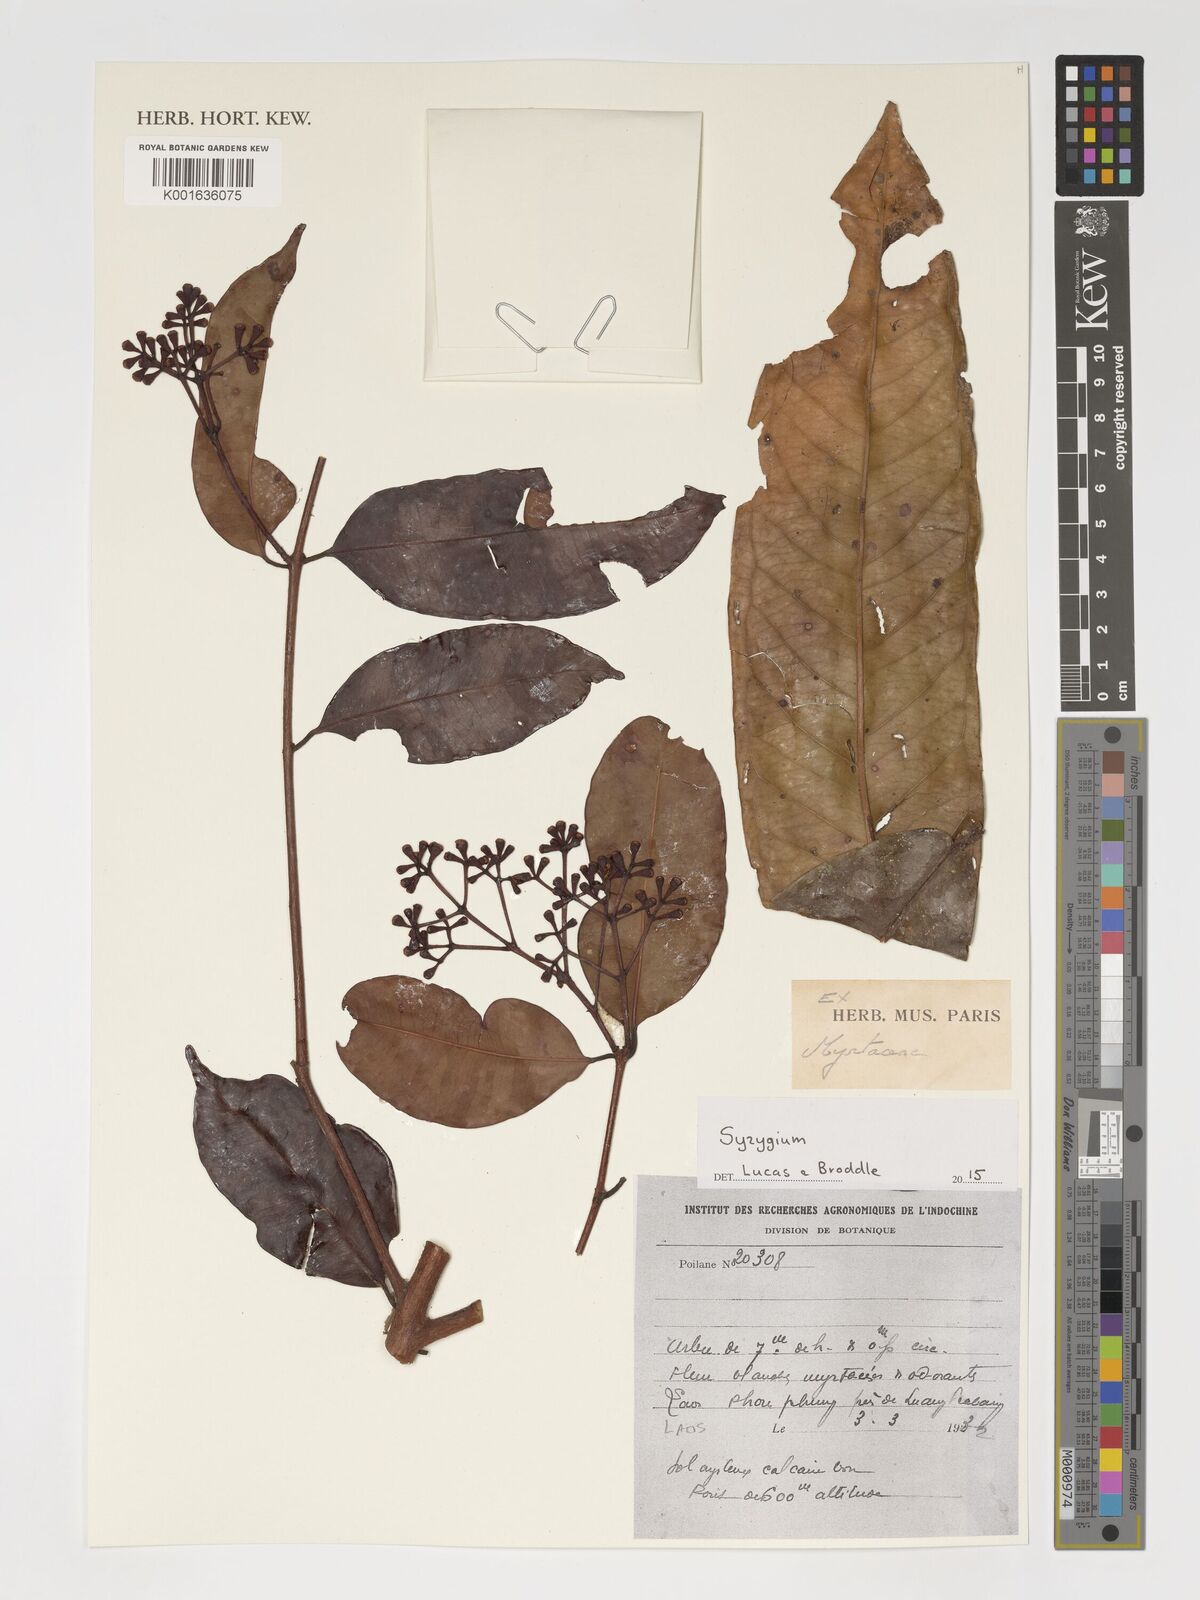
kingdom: Plantae
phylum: Tracheophyta
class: Magnoliopsida
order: Myrtales
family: Myrtaceae
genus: Syzygium
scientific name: Syzygium
